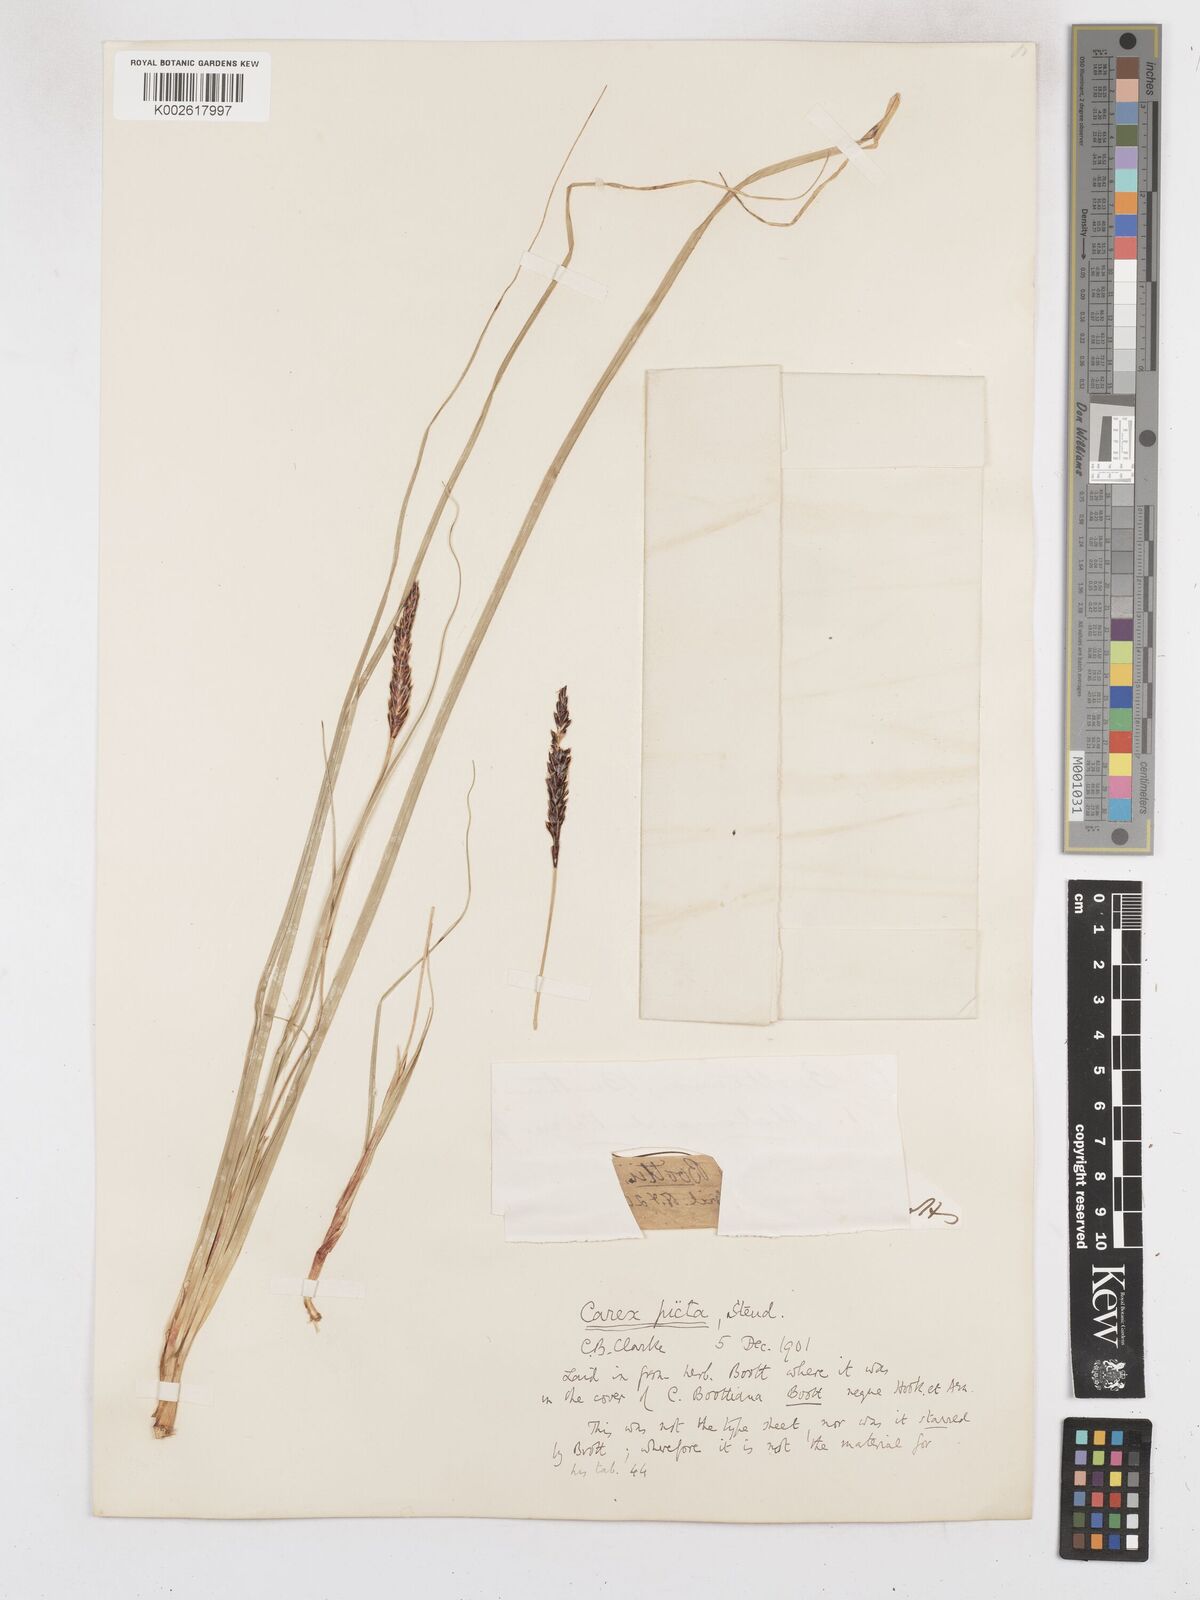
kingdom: Plantae
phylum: Tracheophyta
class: Liliopsida
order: Poales
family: Cyperaceae
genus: Carex
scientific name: Carex picta
